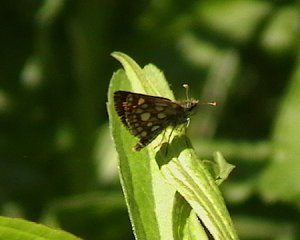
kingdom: Animalia
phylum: Arthropoda
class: Insecta
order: Lepidoptera
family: Hesperiidae
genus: Carterocephalus
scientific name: Carterocephalus palaemon
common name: Chequered Skipper
